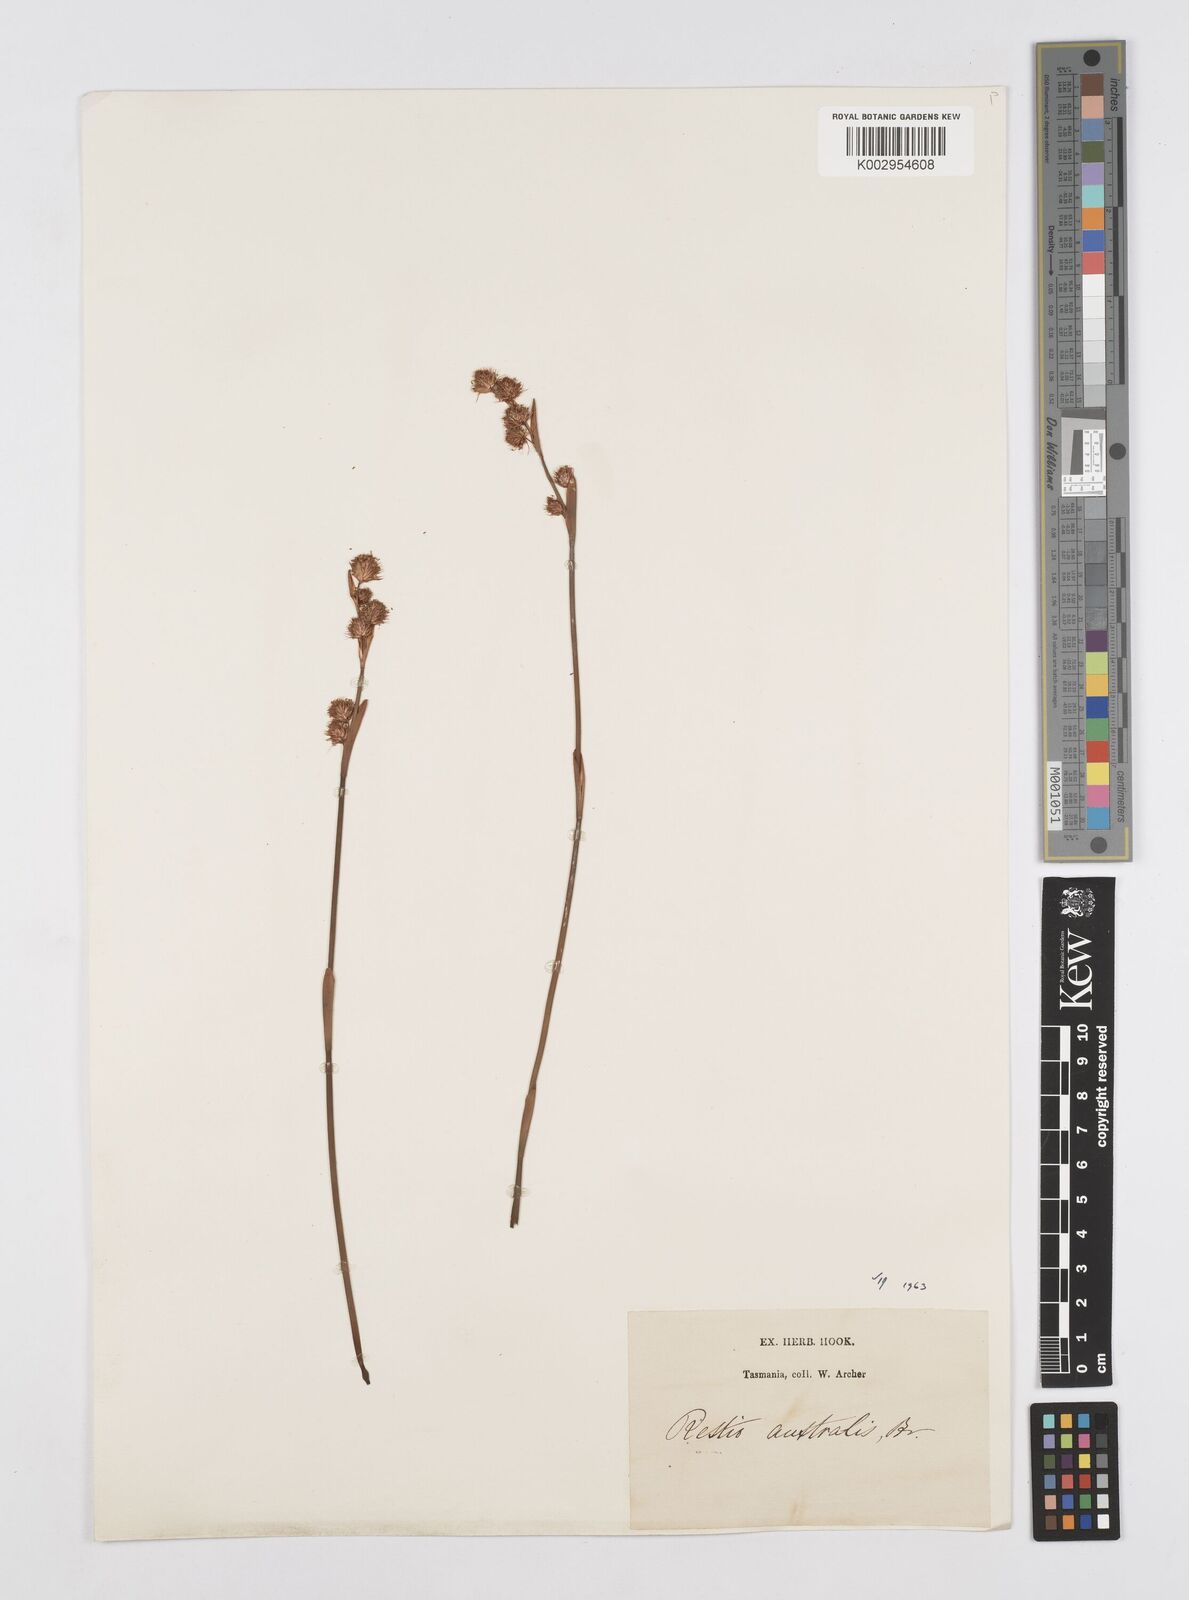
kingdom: Plantae
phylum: Tracheophyta
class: Liliopsida
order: Poales
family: Restionaceae
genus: Baloskion
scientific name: Baloskion australe
